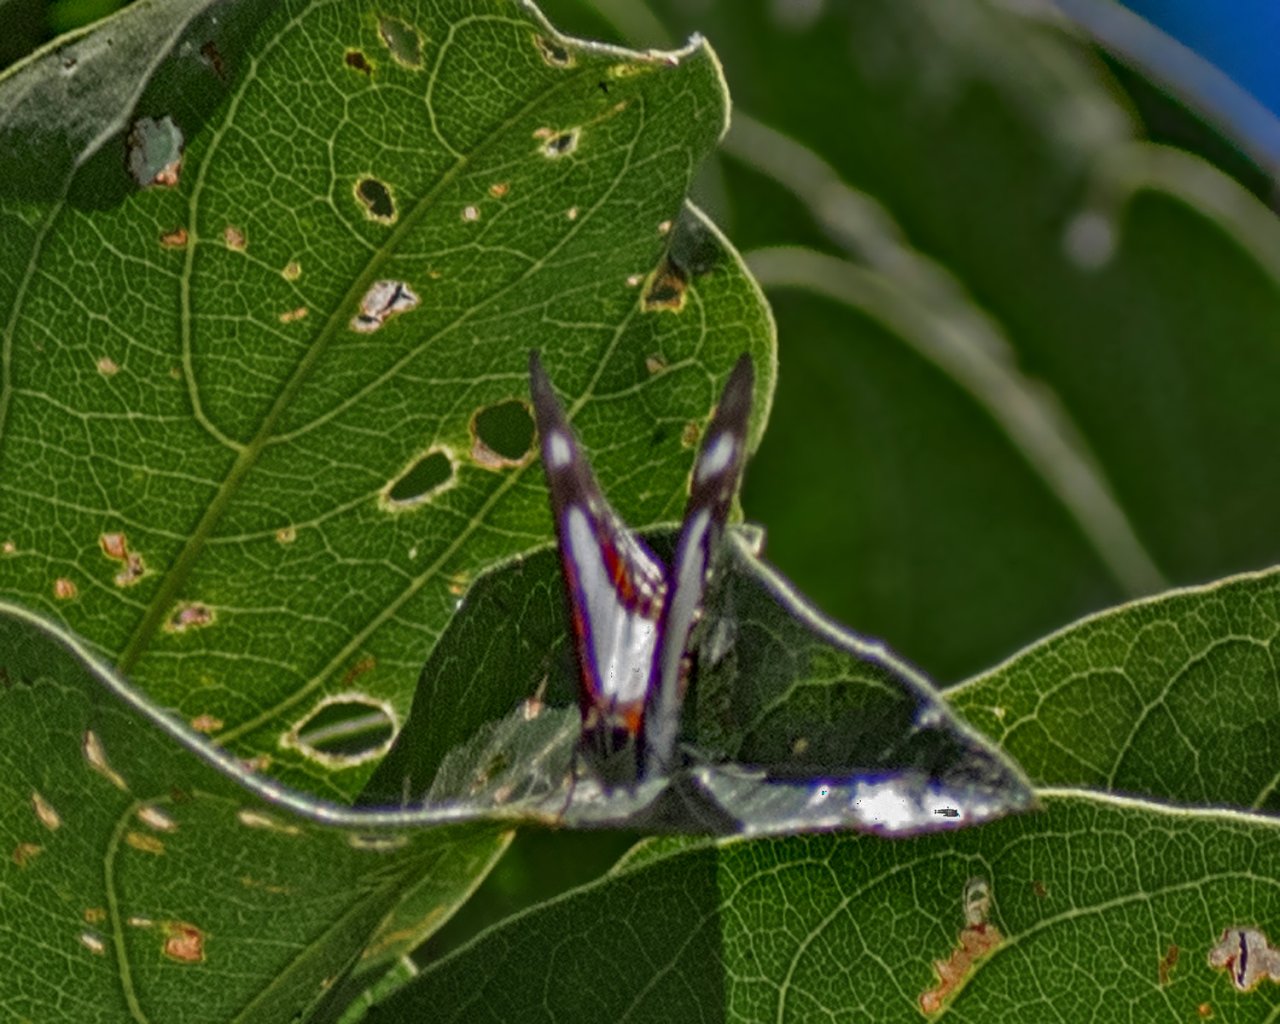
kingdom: Animalia
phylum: Arthropoda
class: Insecta
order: Lepidoptera
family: Riodinidae
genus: Thisbe
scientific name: Thisbe lycorias
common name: Banner Metalmark
